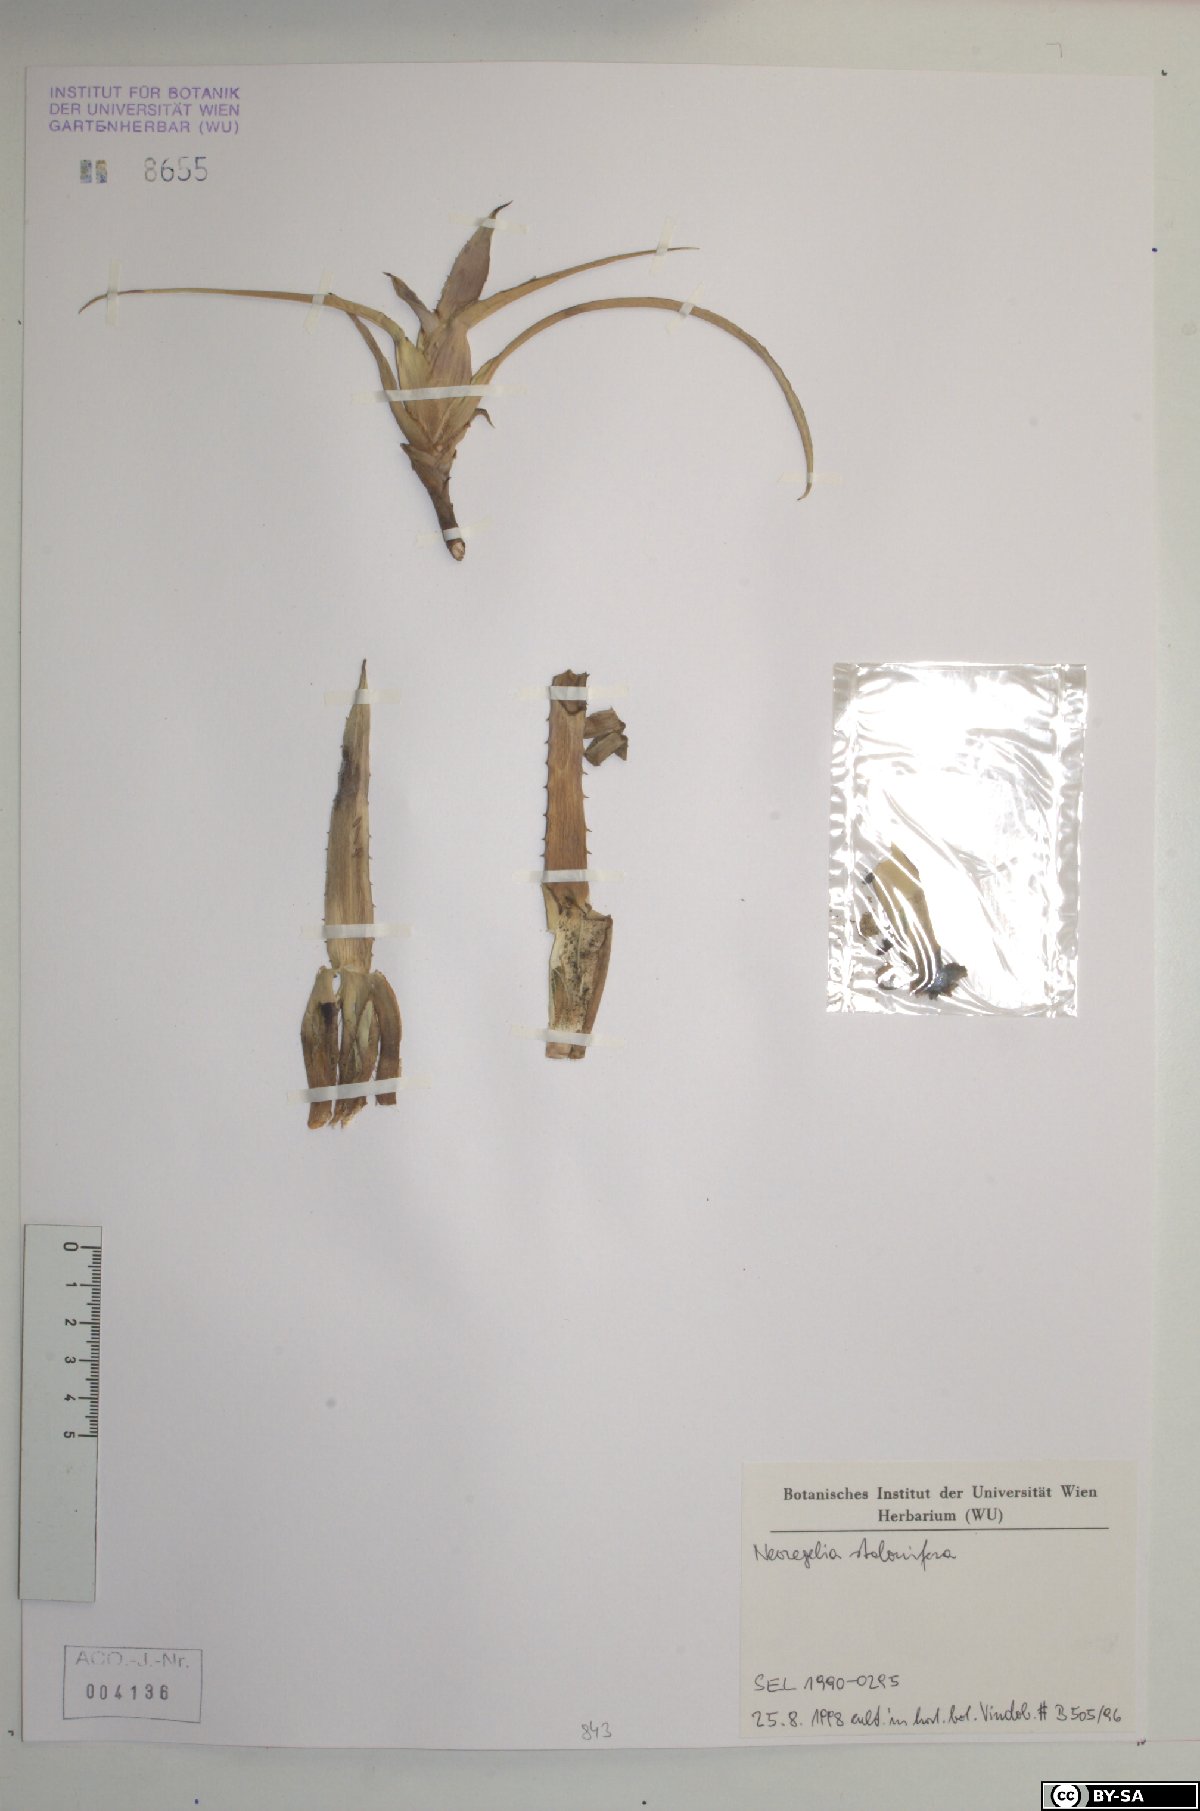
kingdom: Plantae
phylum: Tracheophyta
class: Liliopsida
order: Poales
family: Bromeliaceae
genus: Hylaeaicum
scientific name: Hylaeaicum stoloniferum
